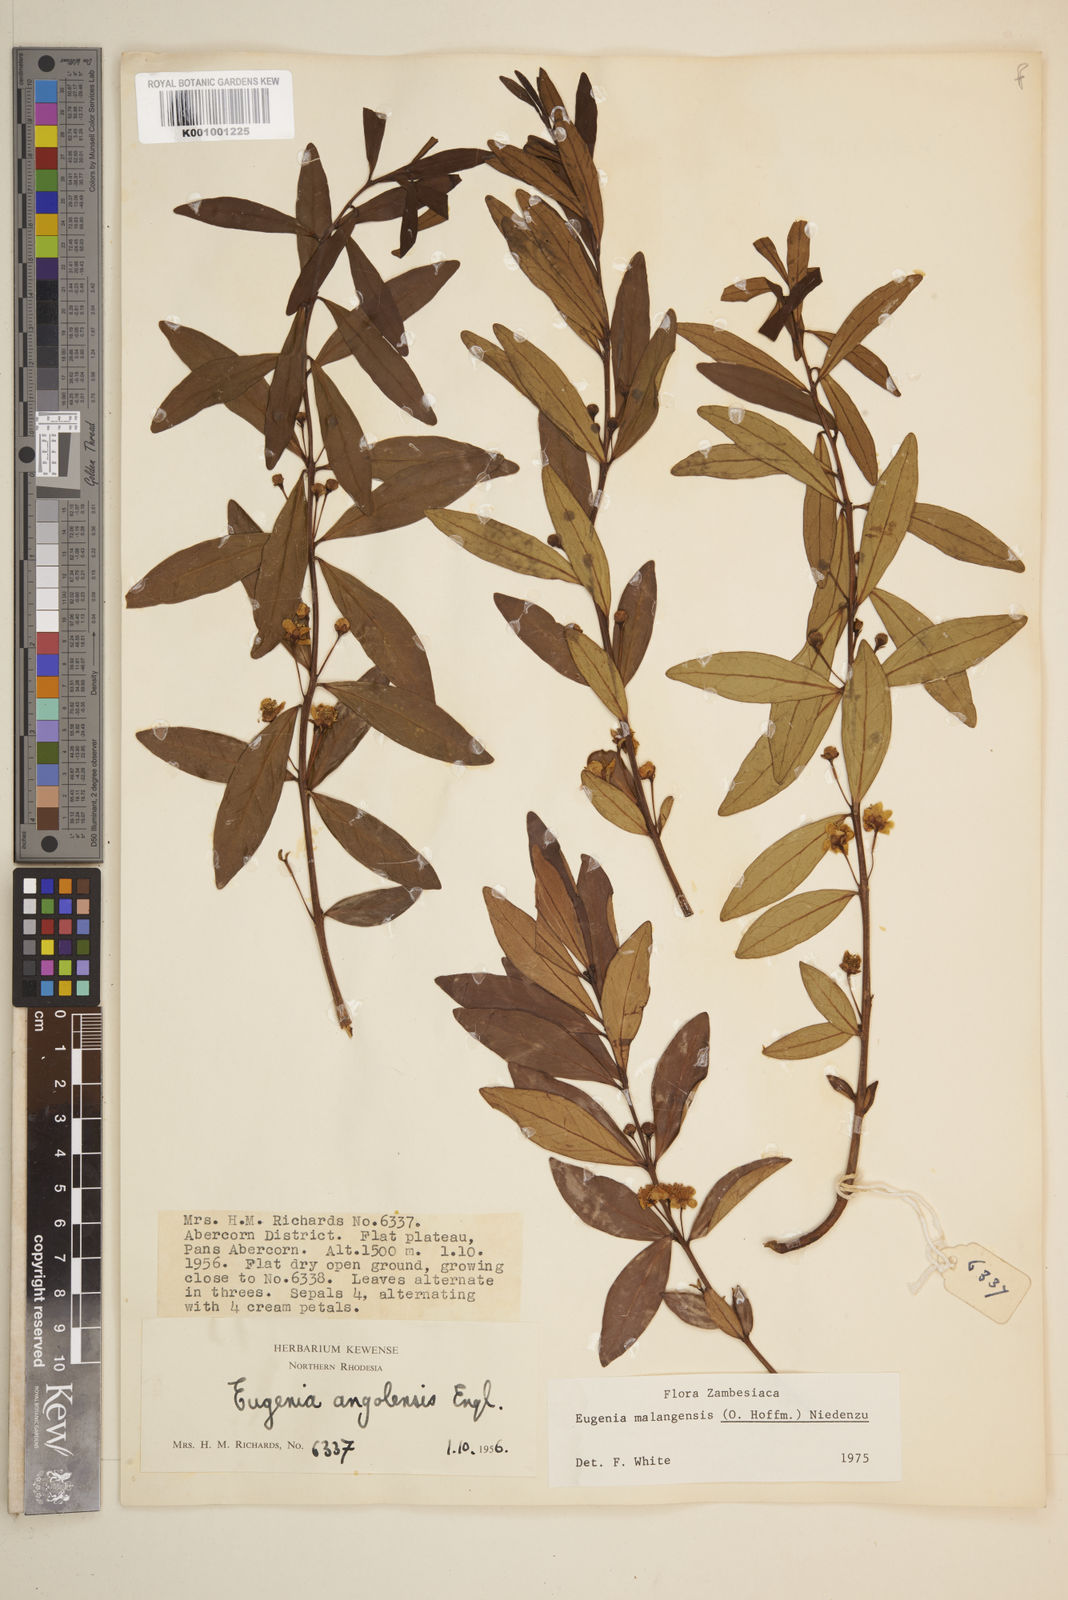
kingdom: Plantae
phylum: Tracheophyta
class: Magnoliopsida
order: Myrtales
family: Myrtaceae
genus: Eugenia
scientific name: Eugenia malangensis
